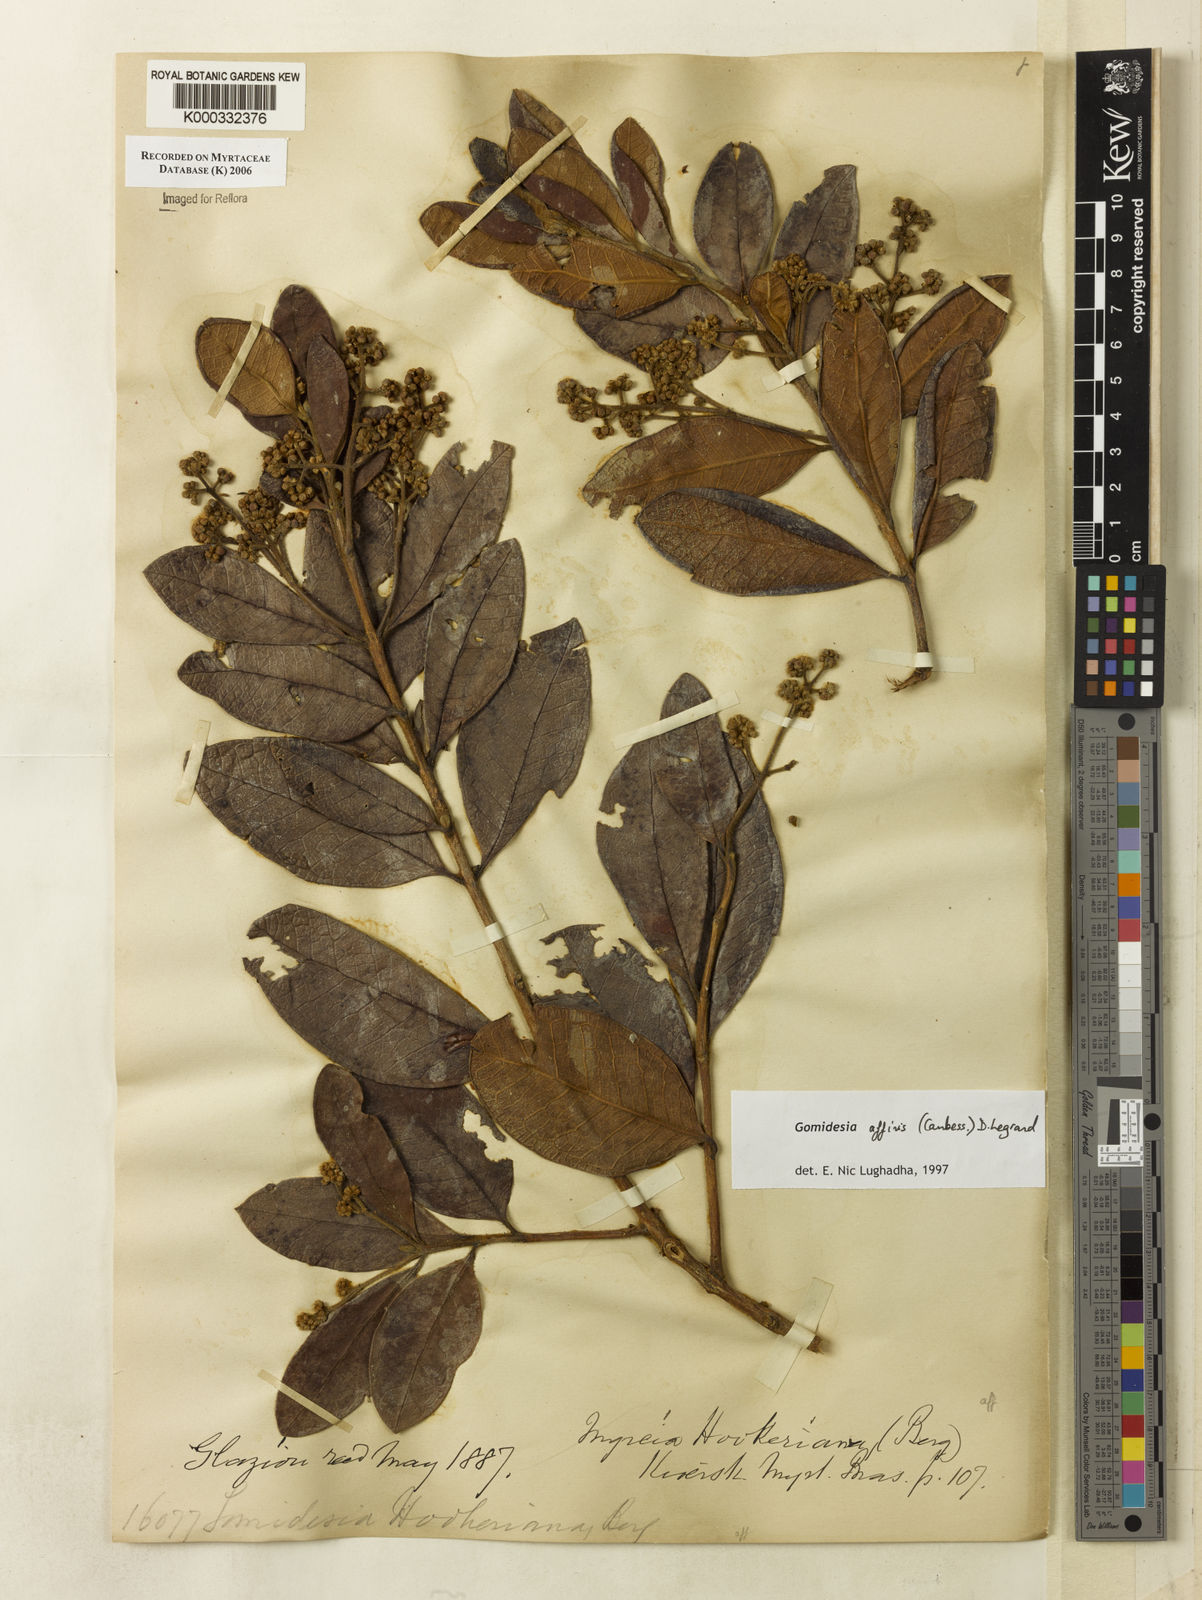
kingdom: Plantae
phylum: Tracheophyta
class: Magnoliopsida
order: Myrtales
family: Myrtaceae
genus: Myrcia
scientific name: Myrcia hebepetala
